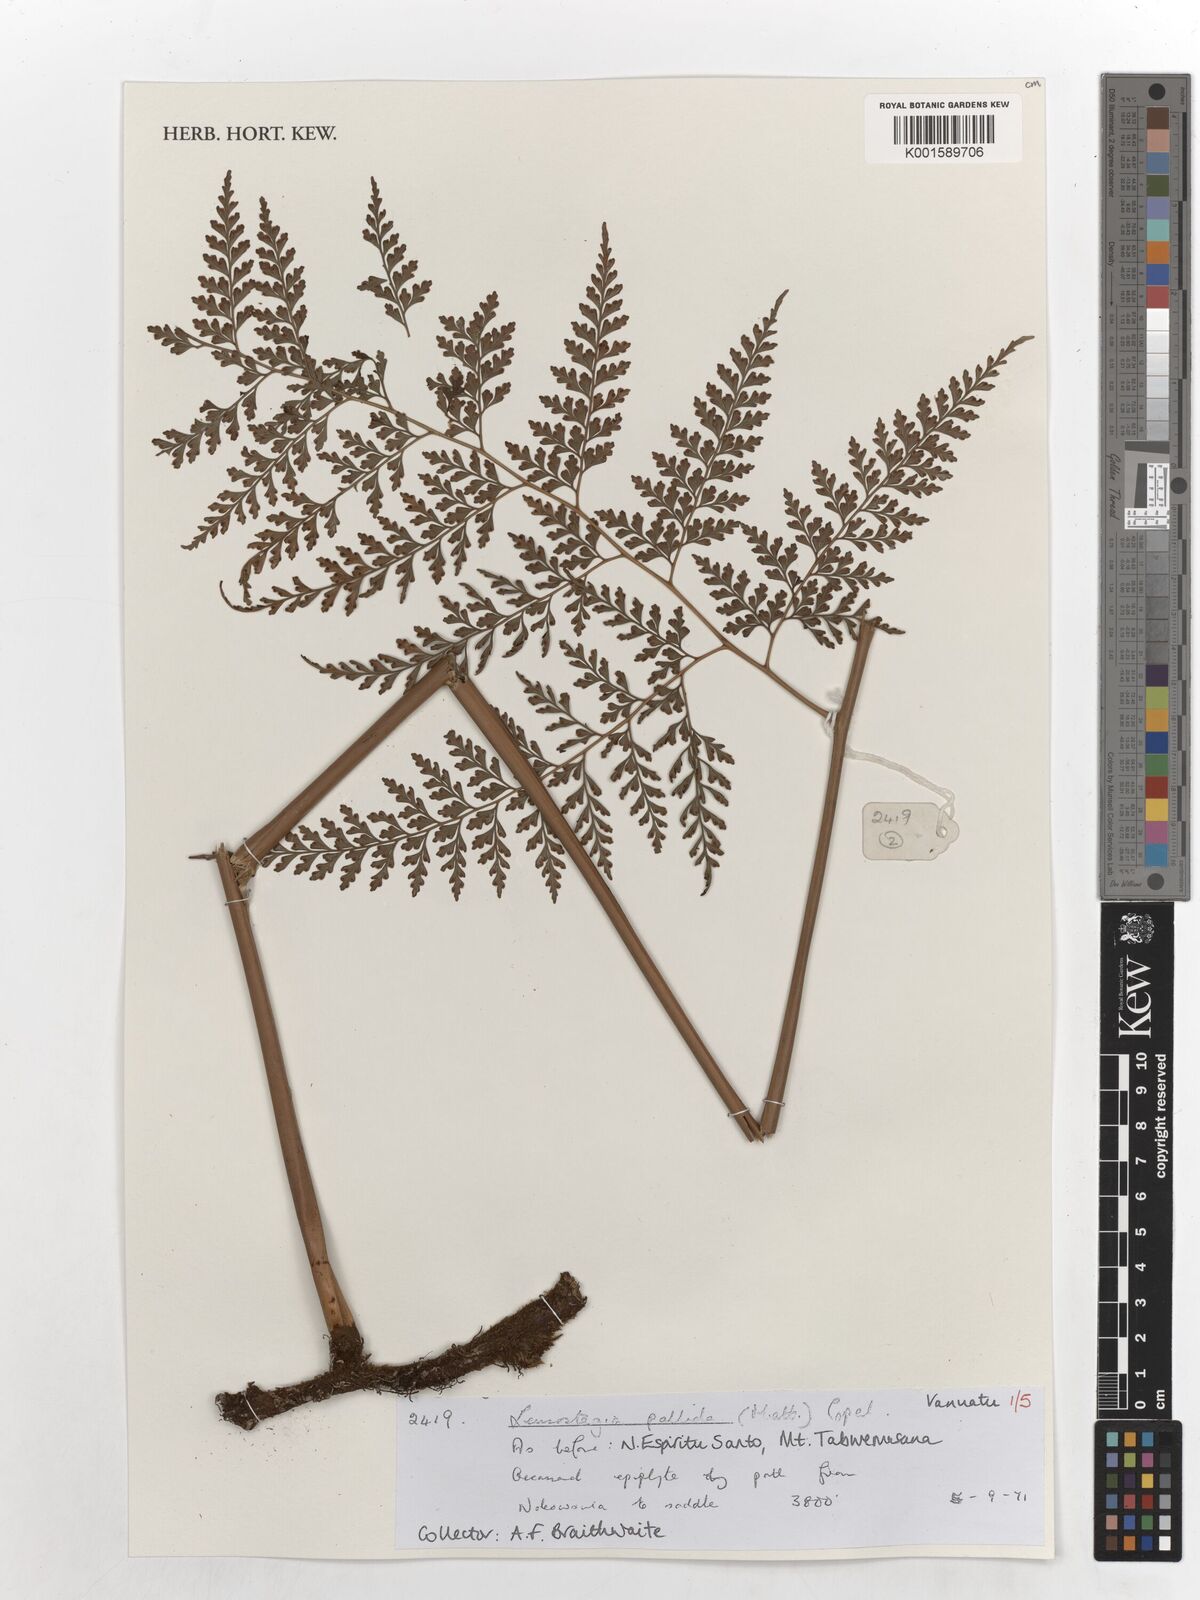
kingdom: Plantae
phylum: Tracheophyta
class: Polypodiopsida
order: Polypodiales
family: Hypodematiaceae
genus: Leucostegia
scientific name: Leucostegia pallida
